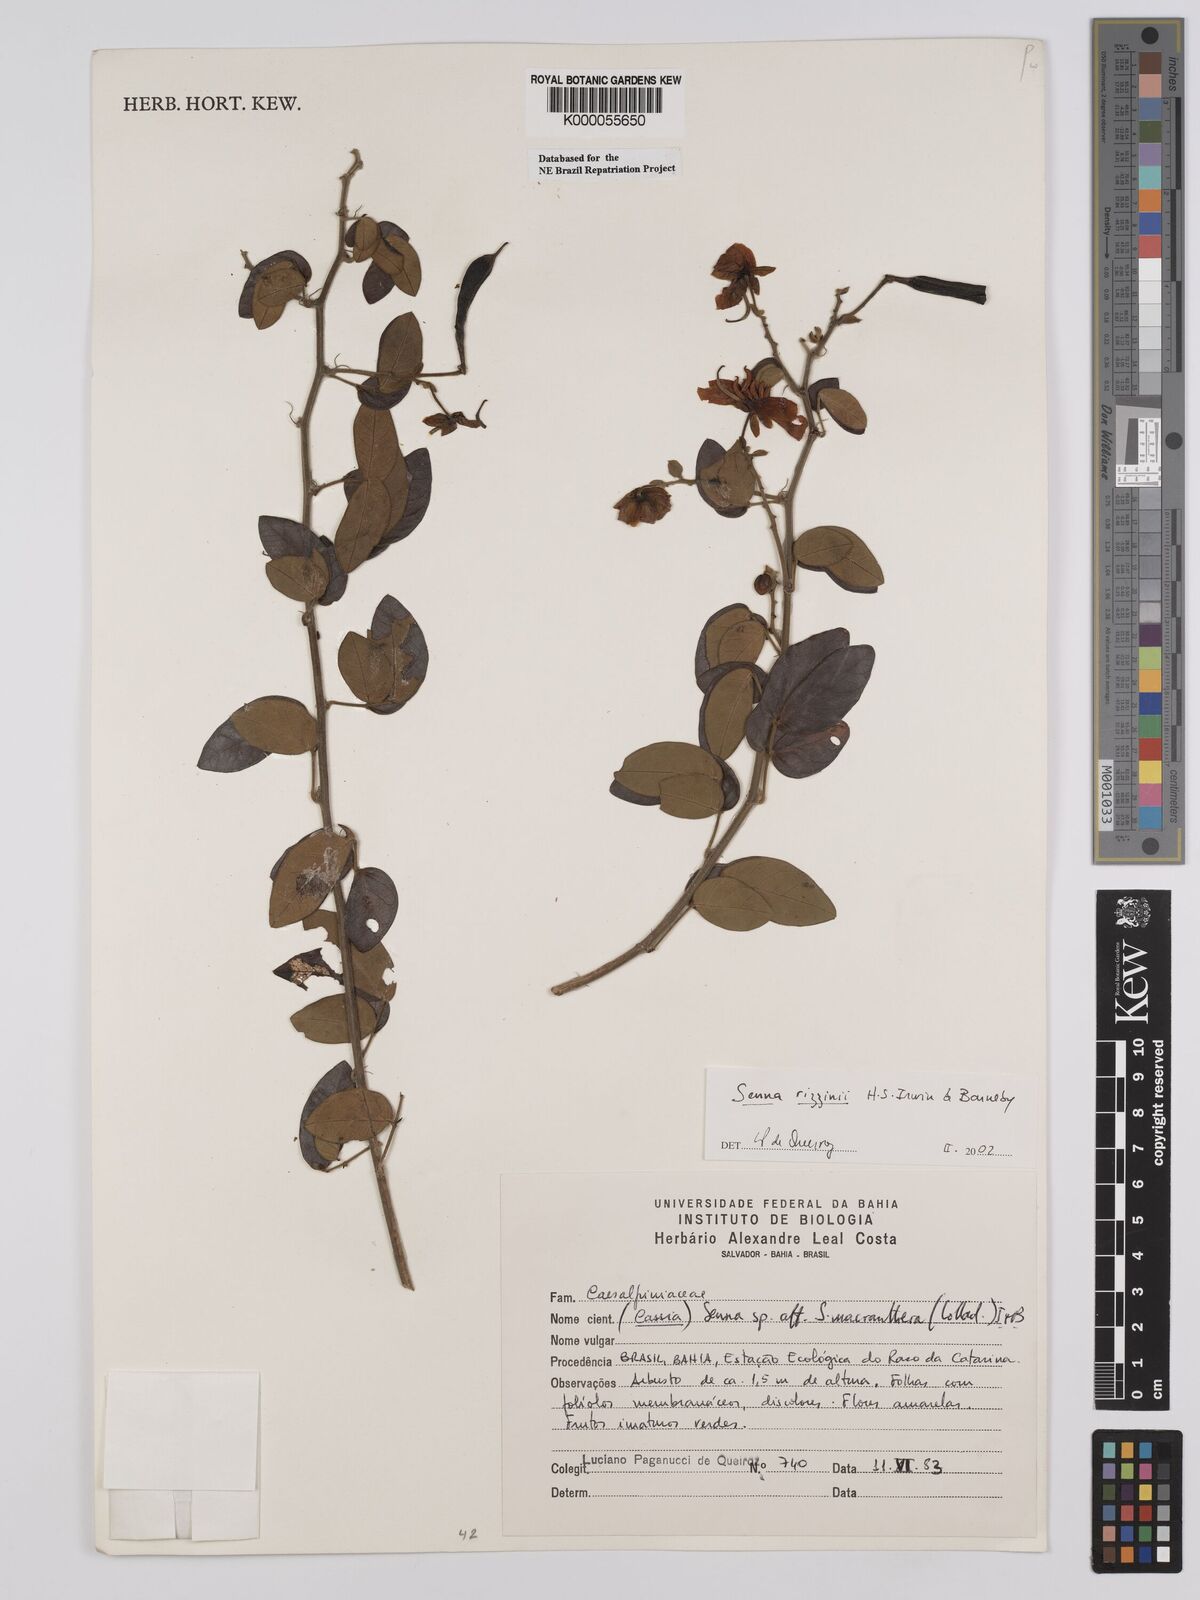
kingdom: Plantae
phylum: Tracheophyta
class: Magnoliopsida
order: Fabales
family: Fabaceae
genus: Senna
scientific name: Senna rizzinii
